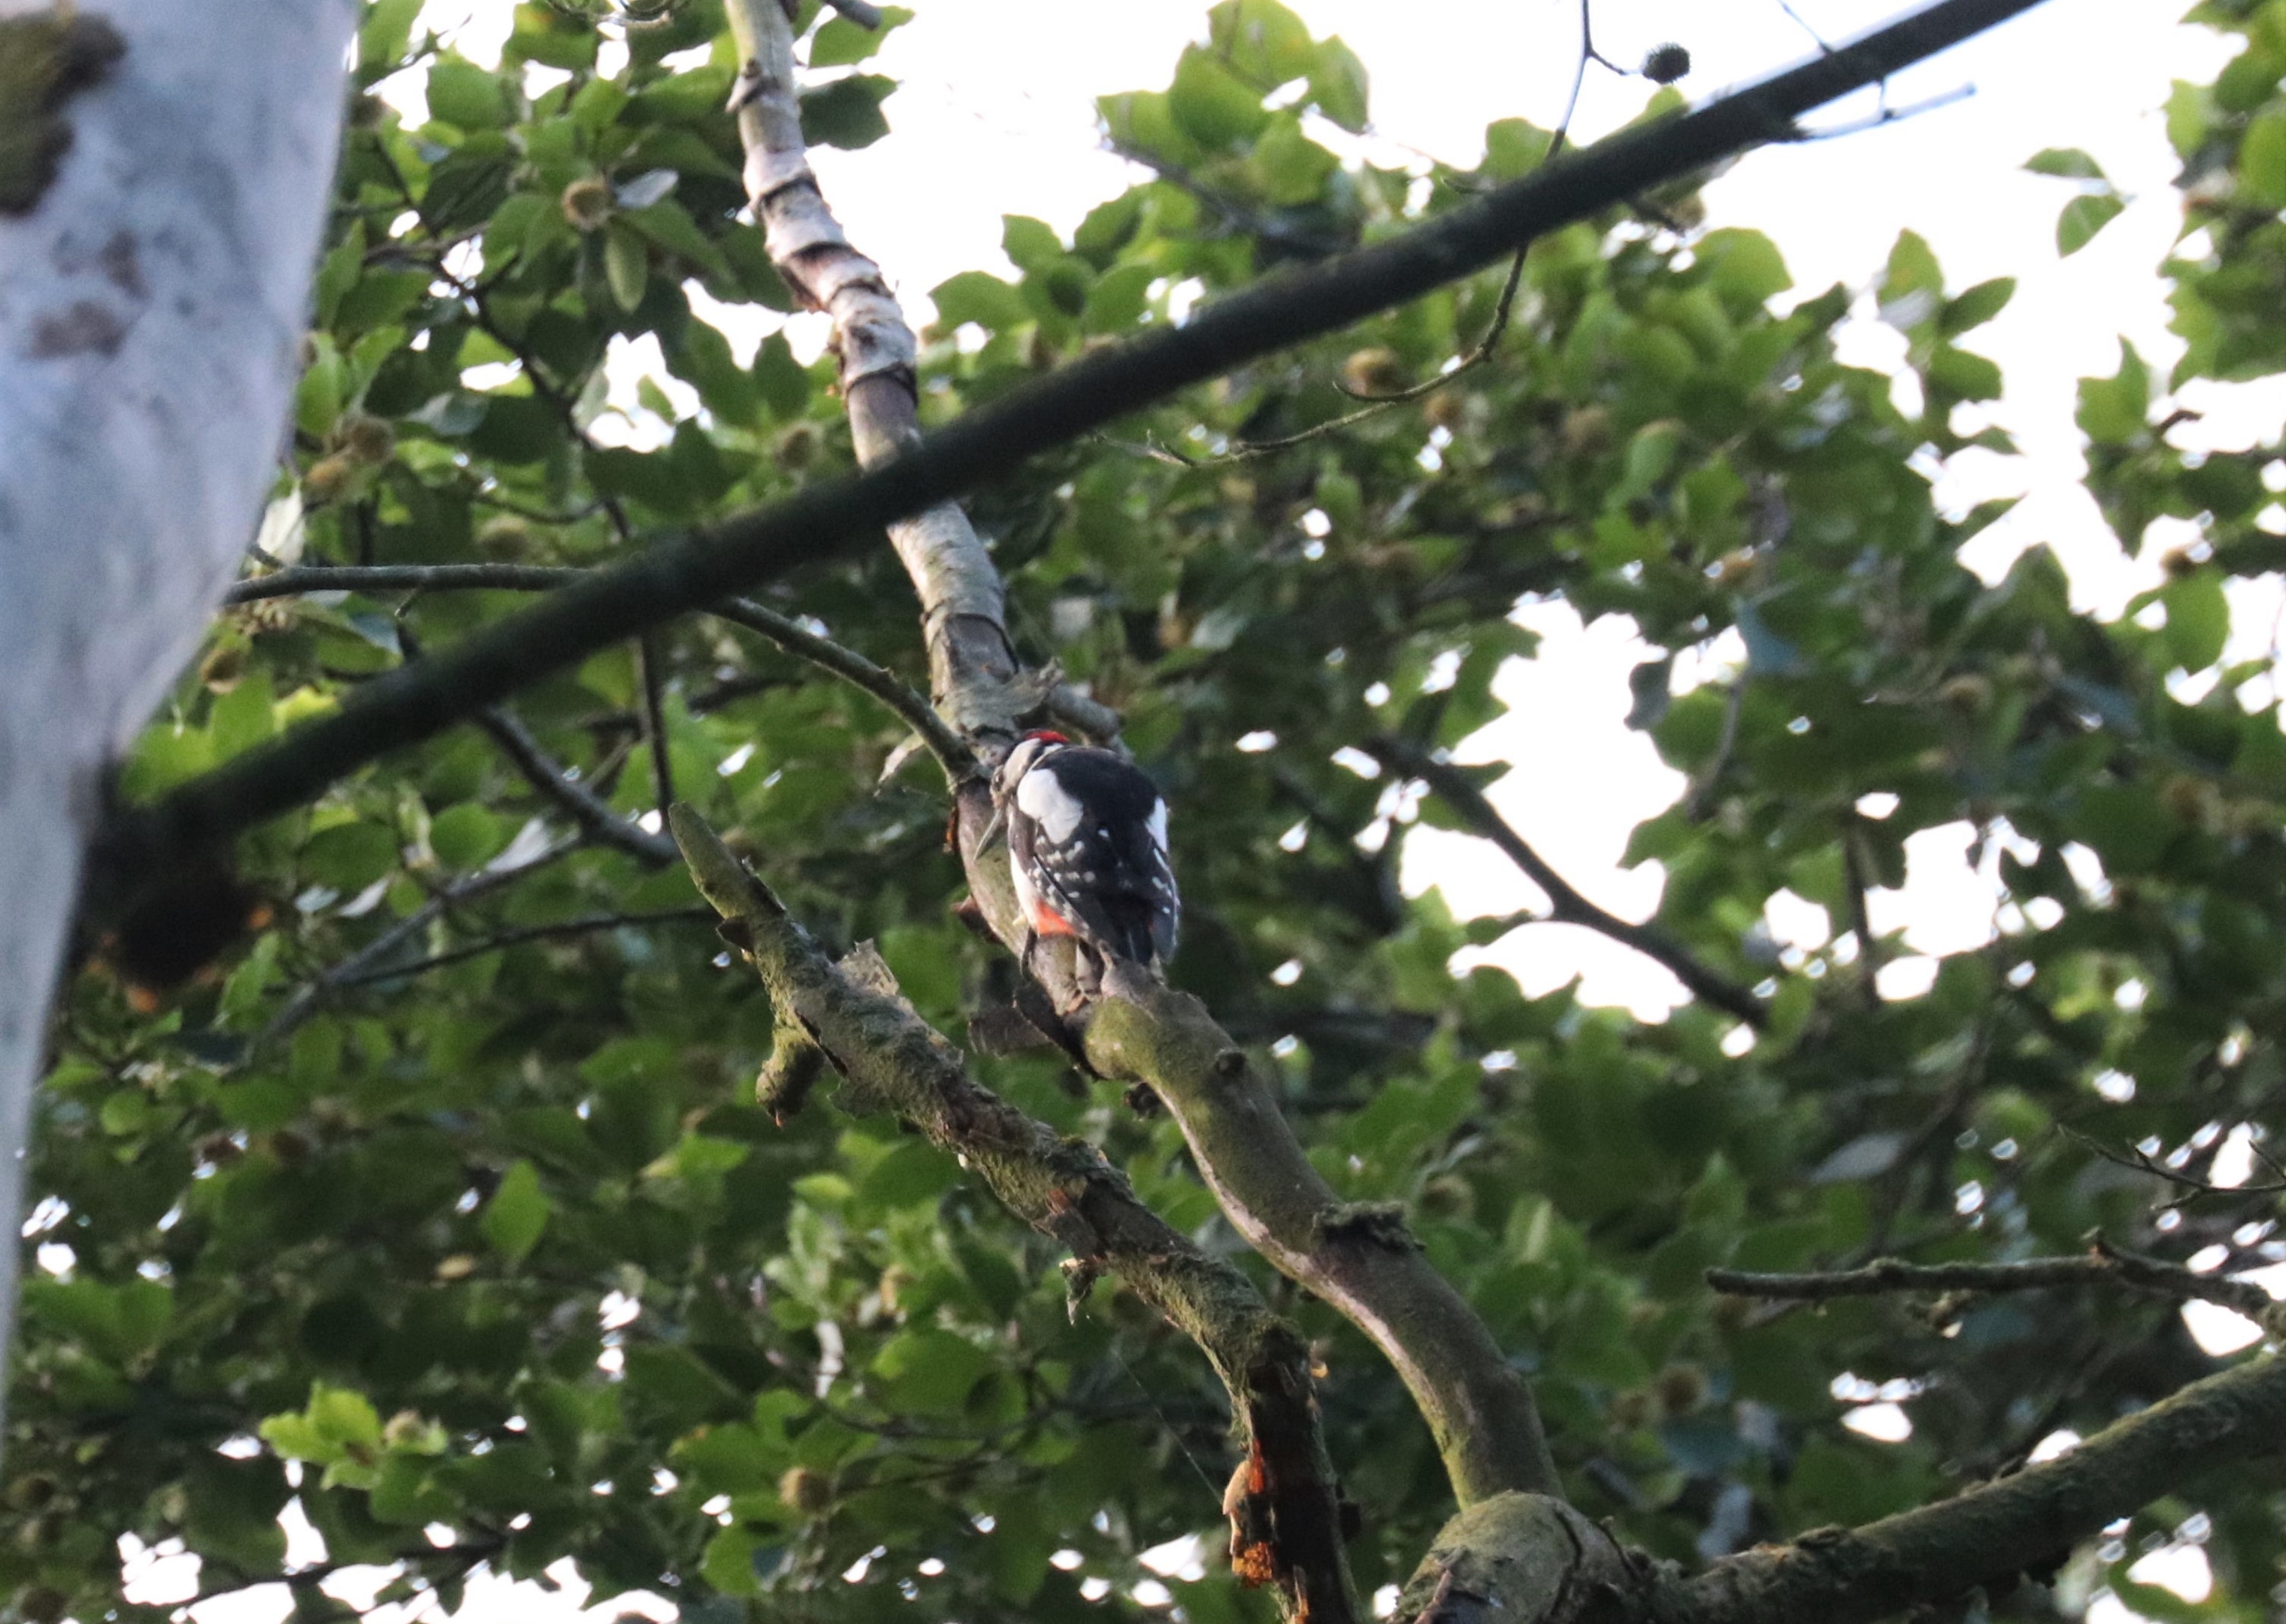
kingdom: Animalia
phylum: Chordata
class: Aves
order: Piciformes
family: Picidae
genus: Dendrocopos
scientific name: Dendrocopos major
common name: Stor flagspætte
